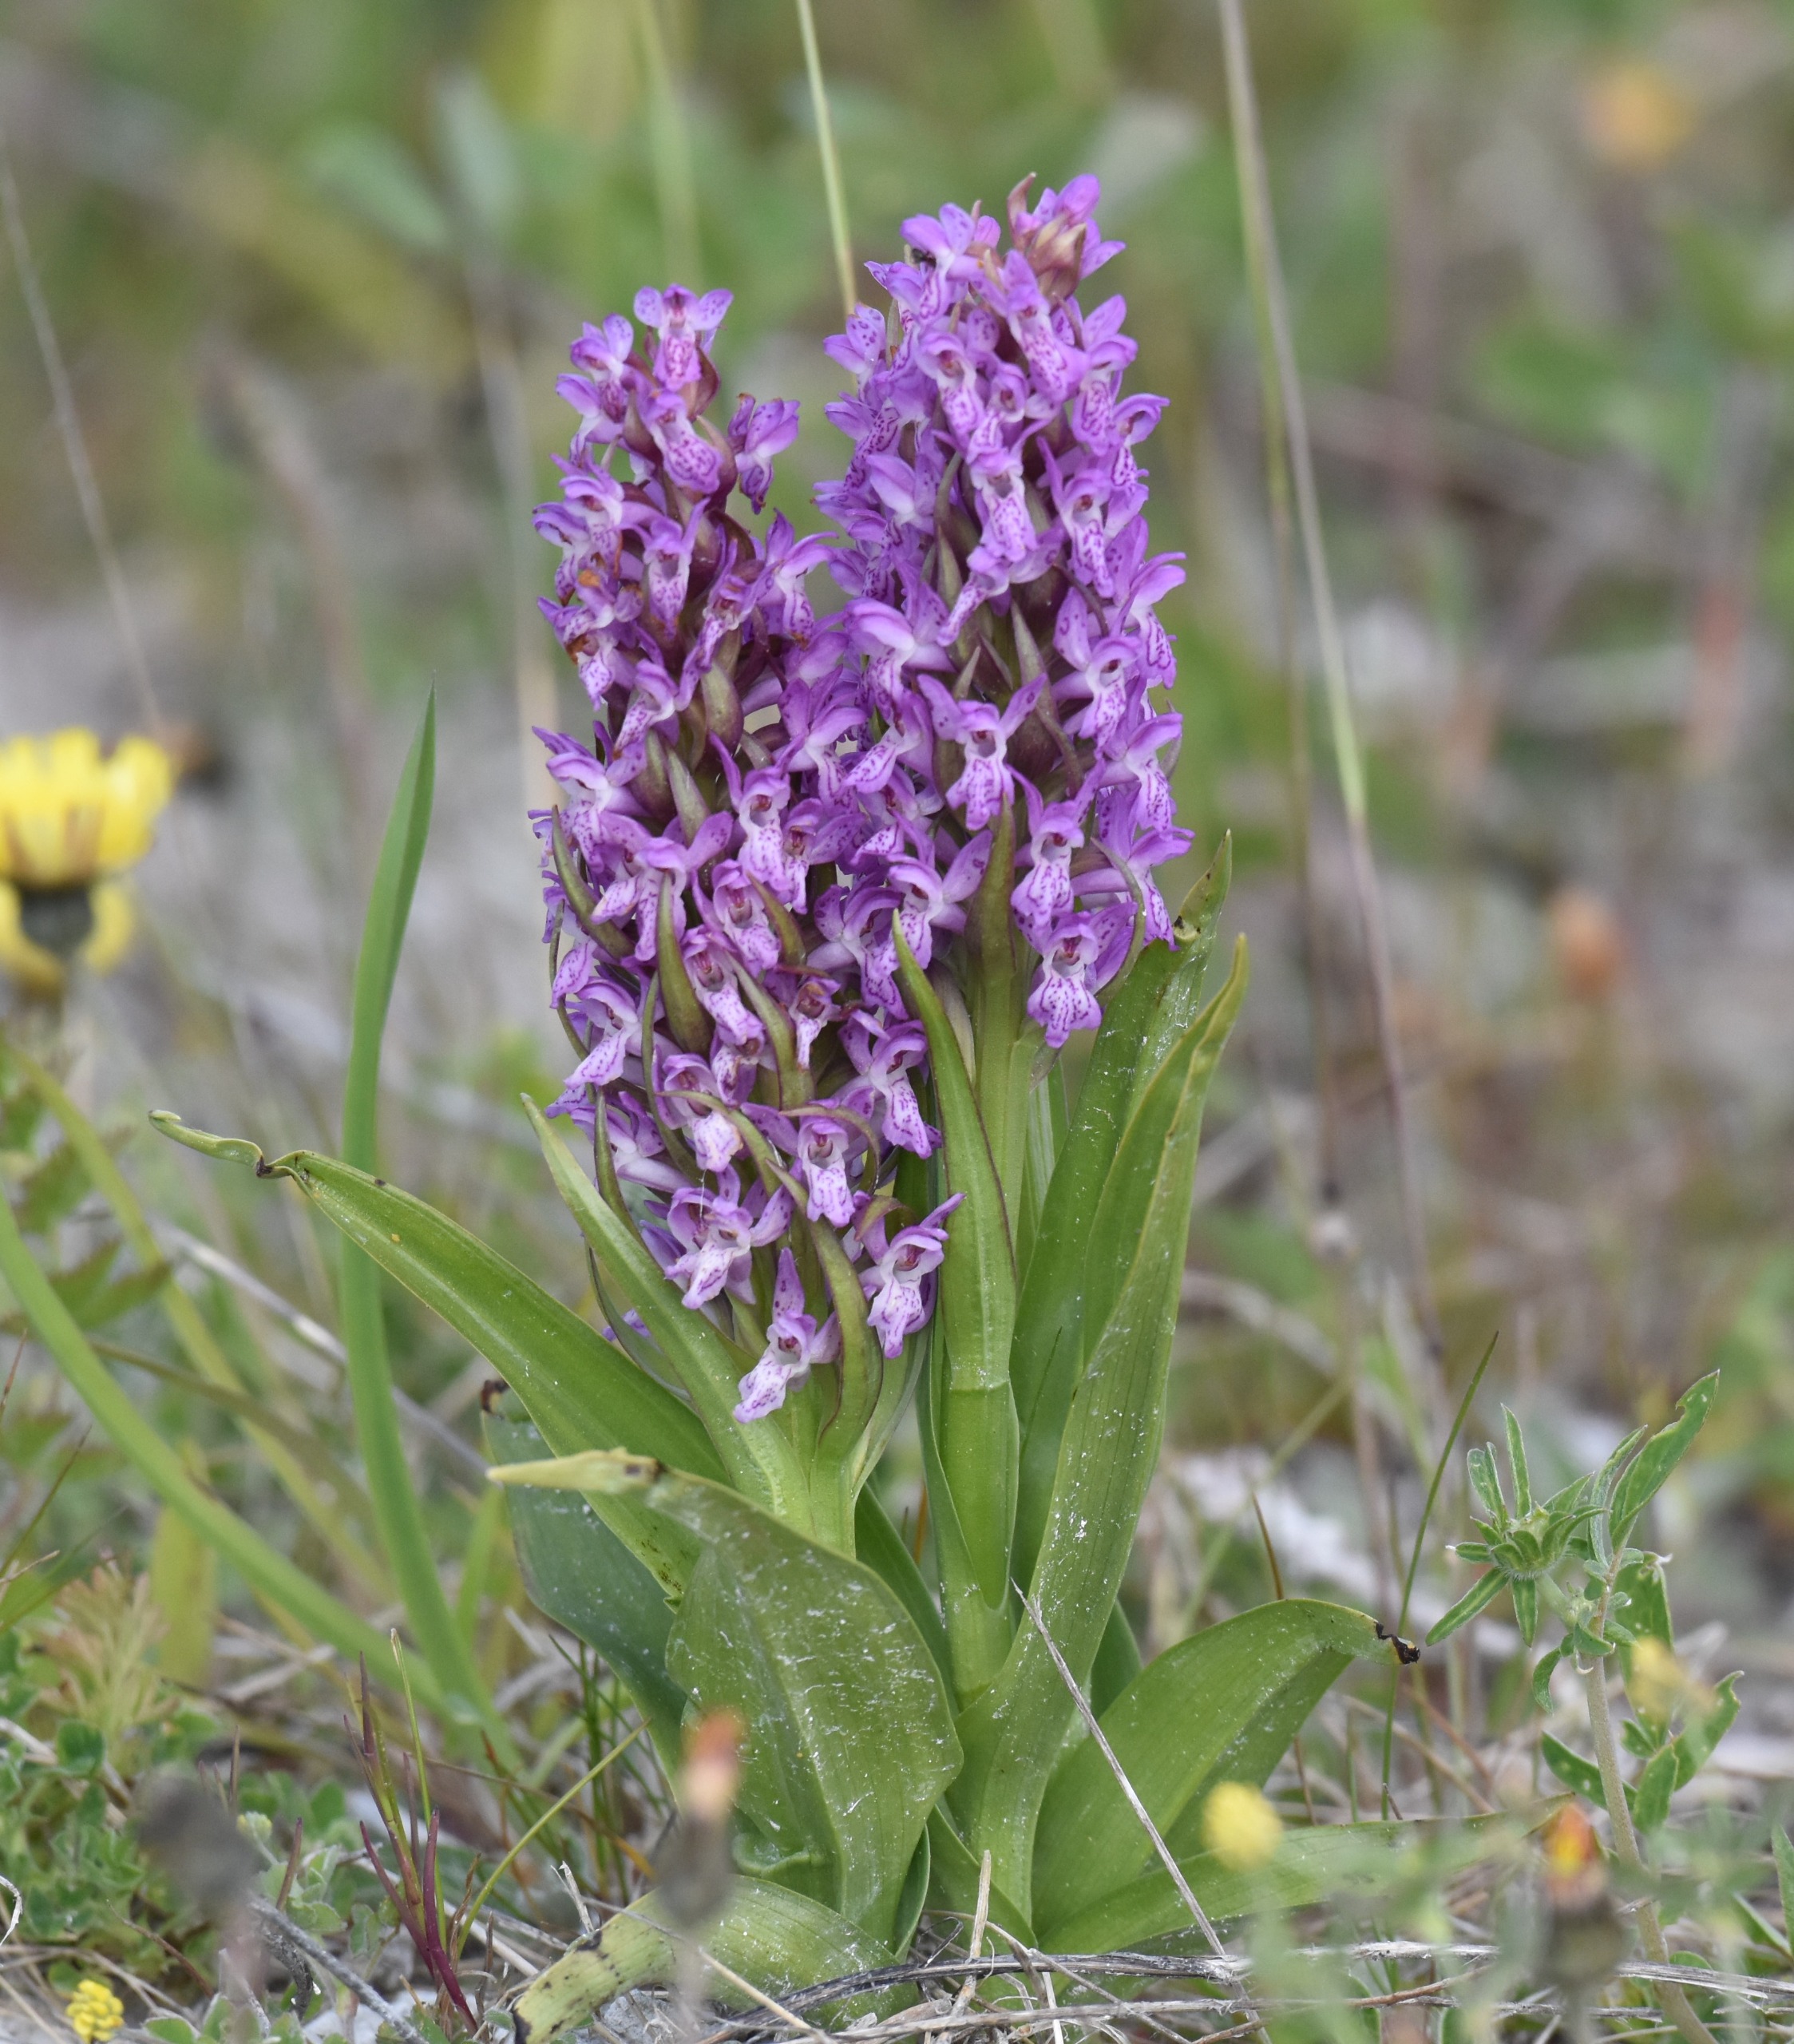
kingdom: Plantae
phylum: Tracheophyta
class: Liliopsida
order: Asparagales
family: Orchidaceae
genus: Dactylorhiza
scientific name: Dactylorhiza incarnata
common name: Kødfarvet gøgeurt
